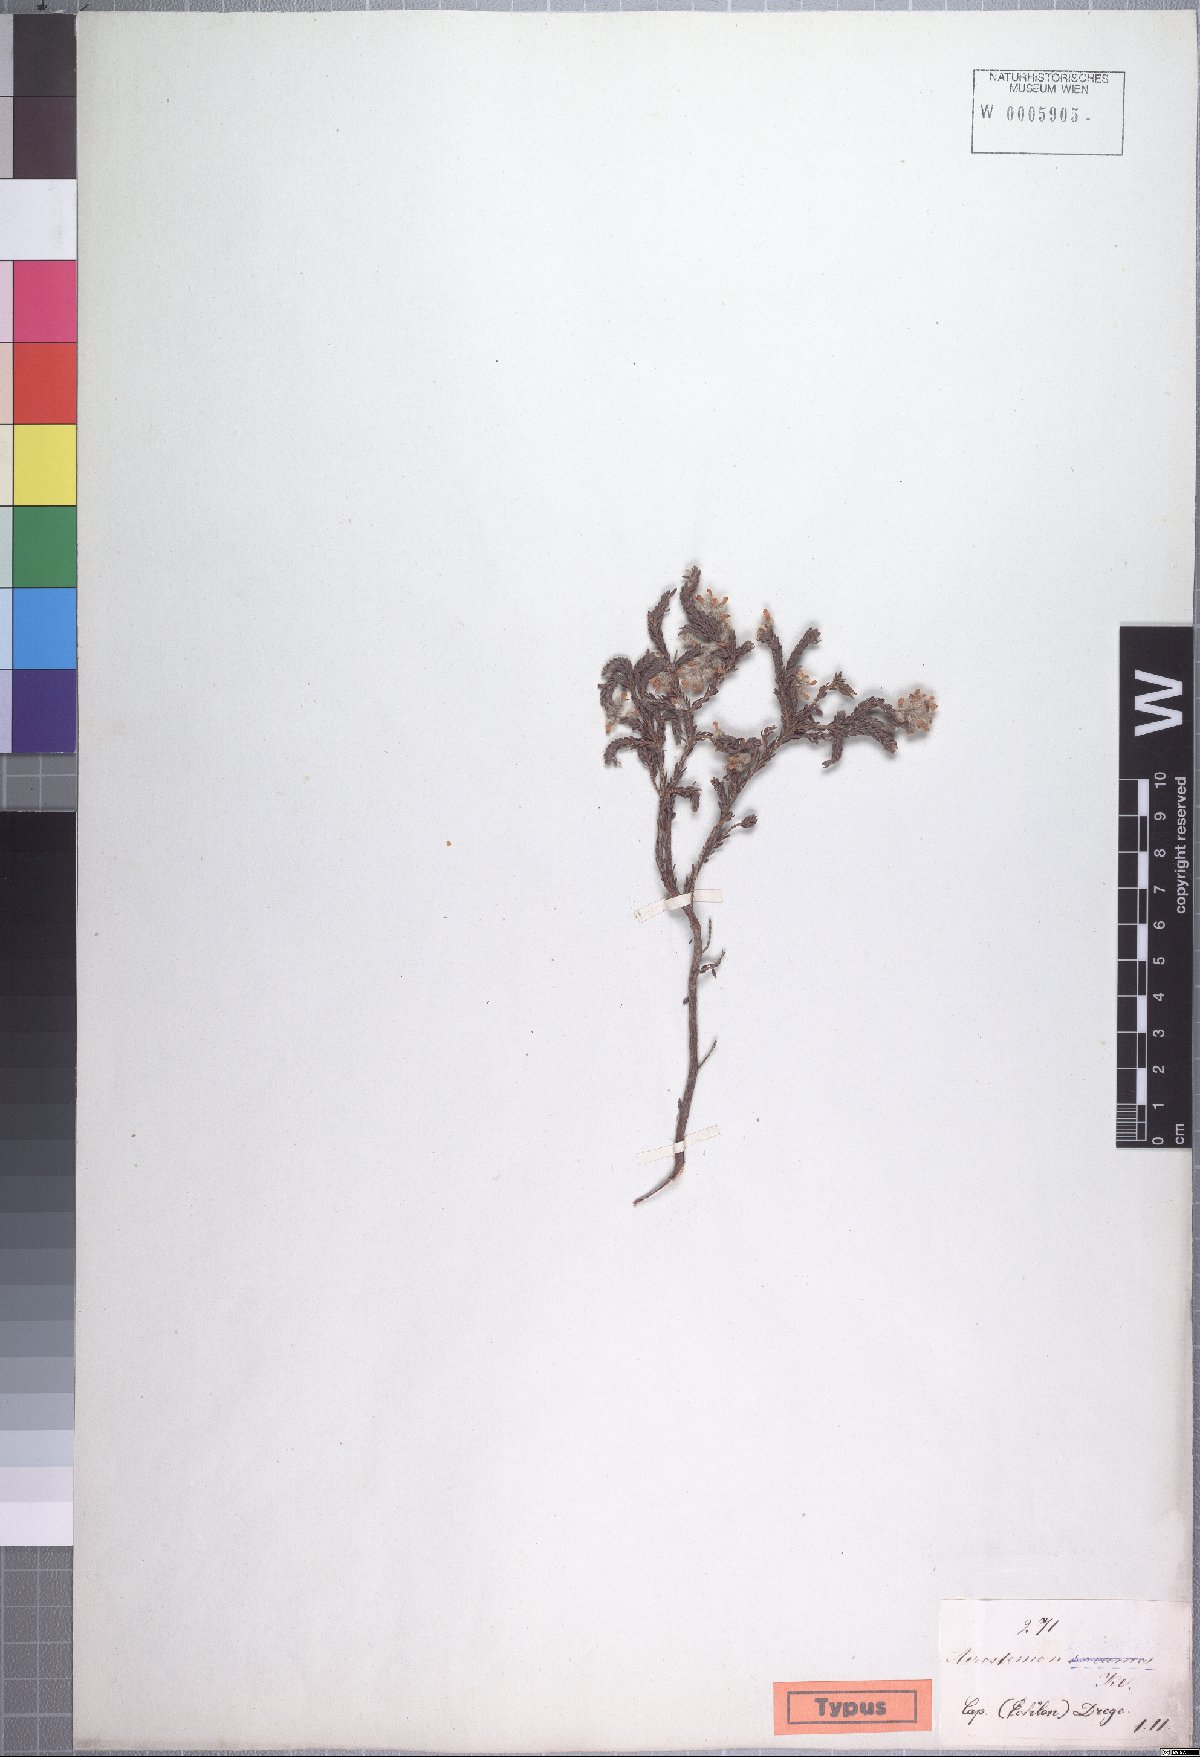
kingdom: Plantae
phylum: Tracheophyta
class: Magnoliopsida
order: Ericales
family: Ericaceae
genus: Erica
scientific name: Erica eriocephala
